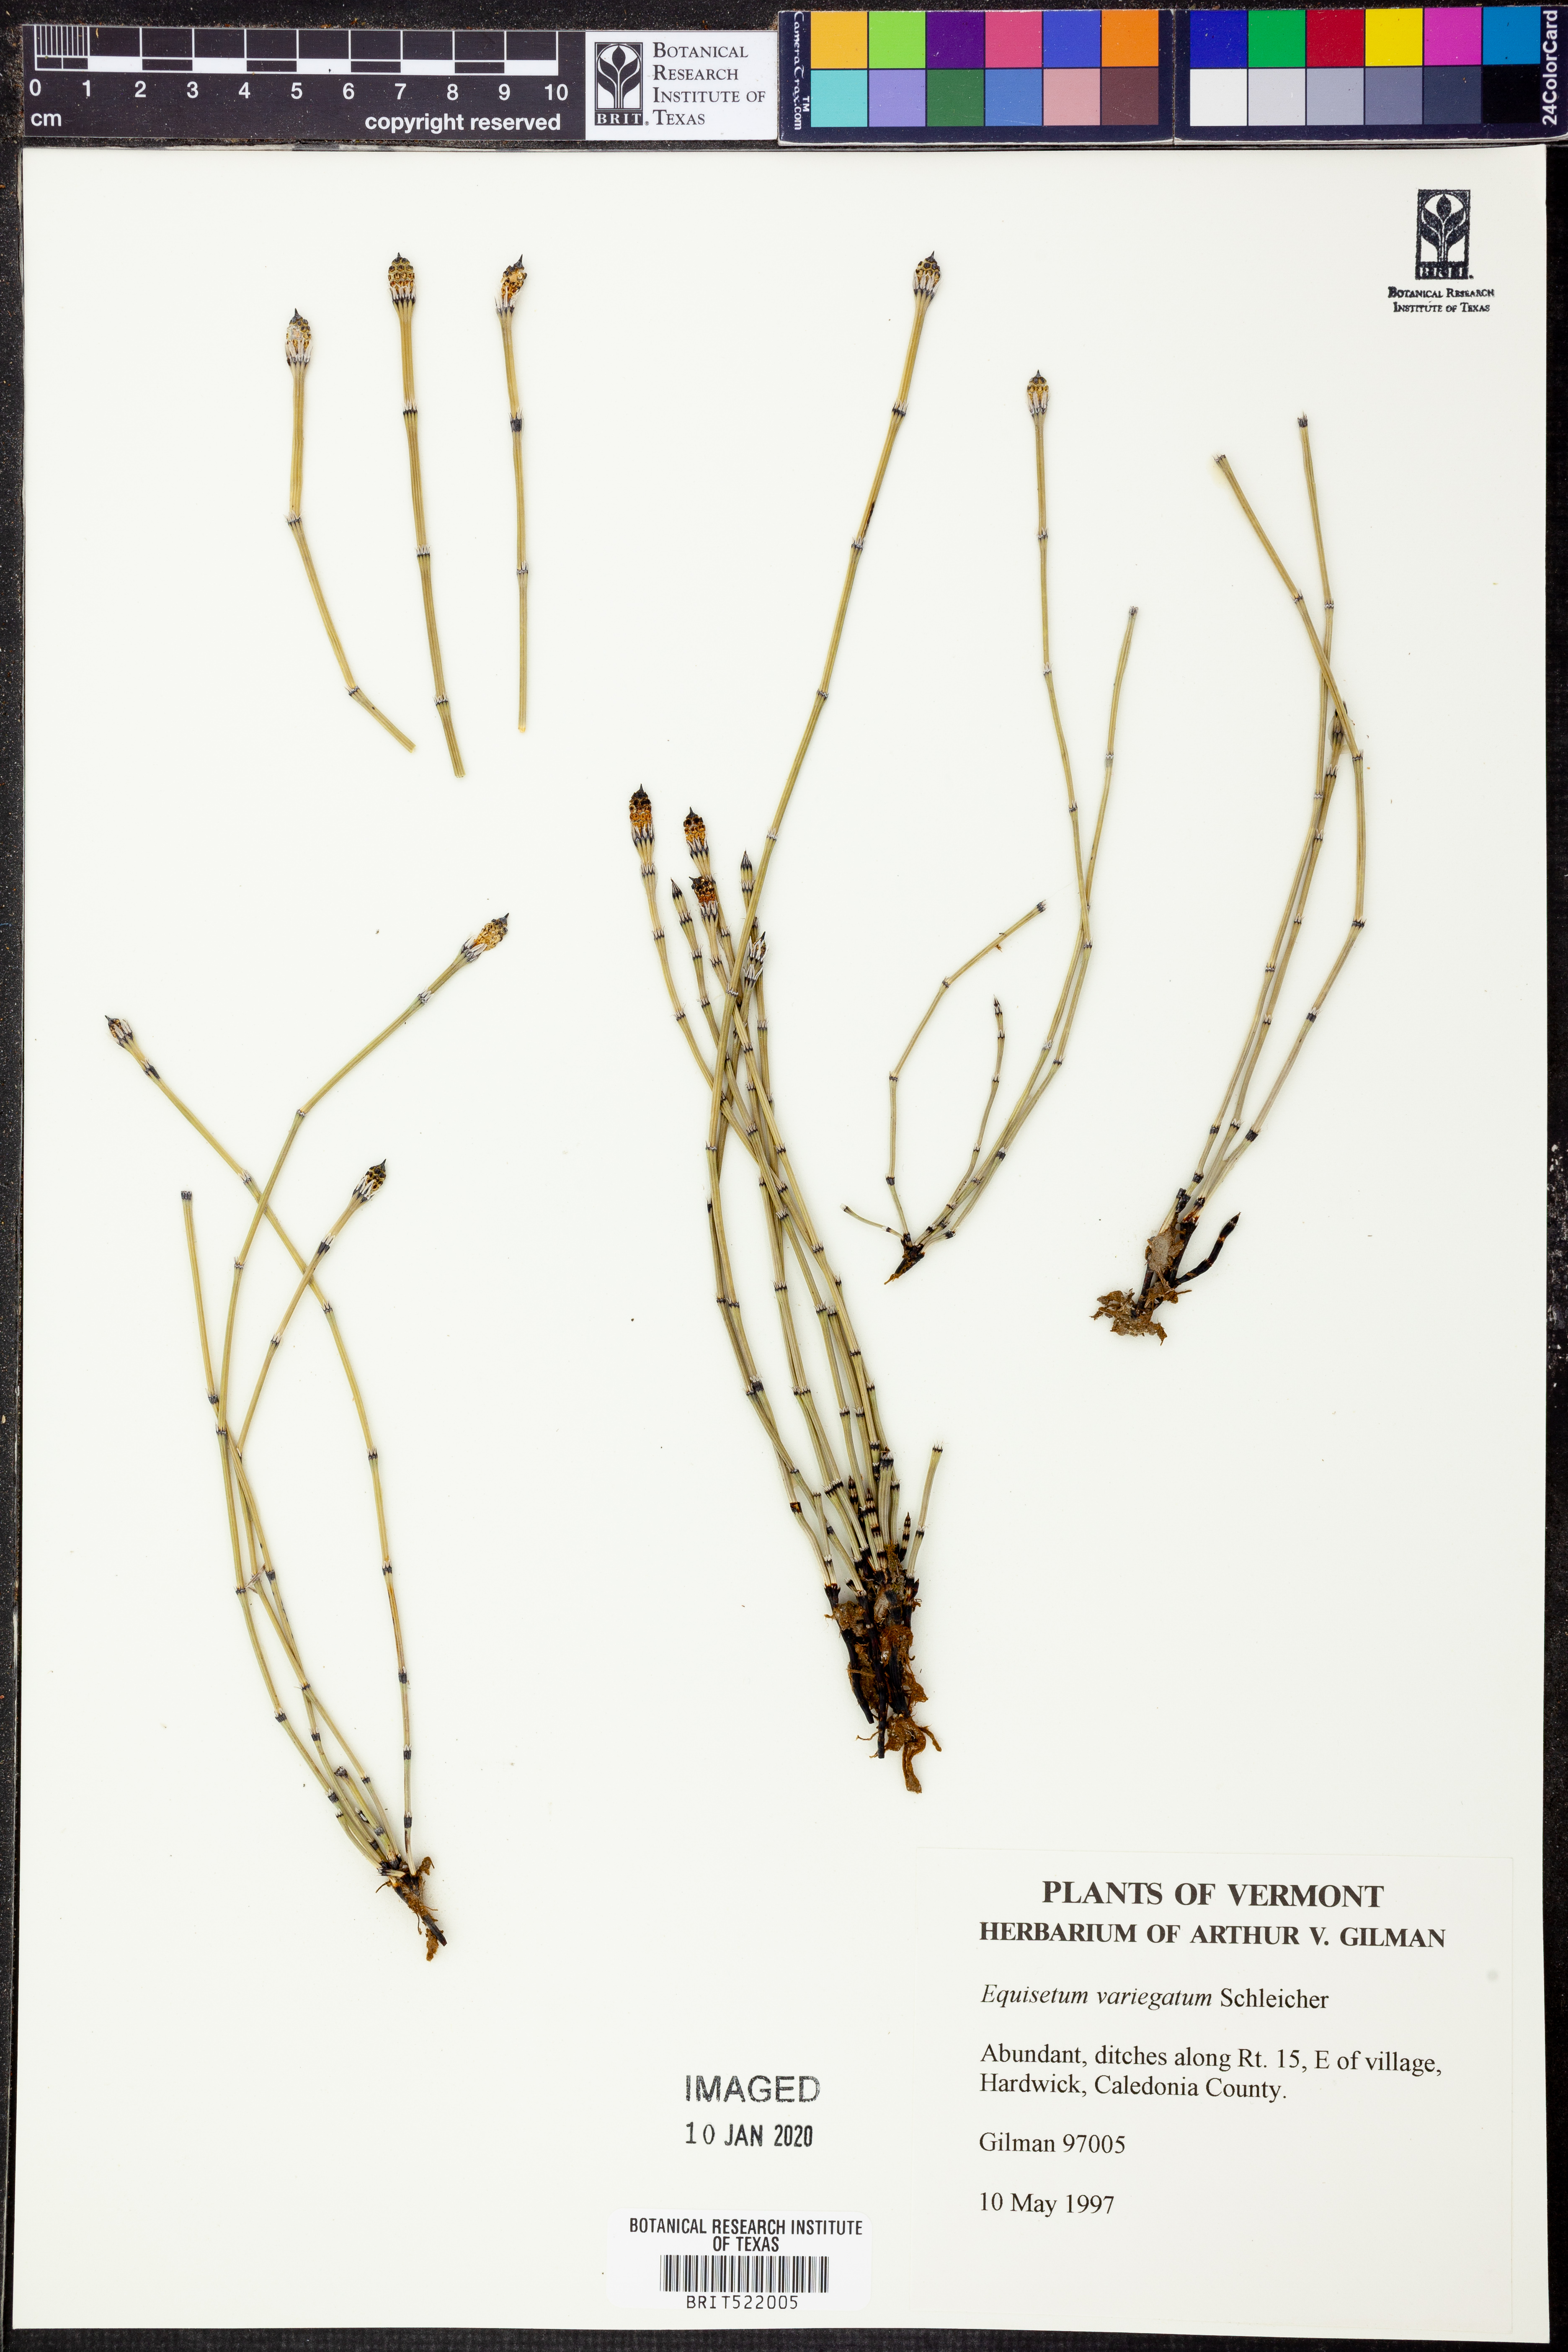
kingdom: Plantae
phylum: Tracheophyta
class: Polypodiopsida
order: Equisetales
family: Equisetaceae
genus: Equisetum
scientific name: Equisetum variegatum
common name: Variegated horsetail
